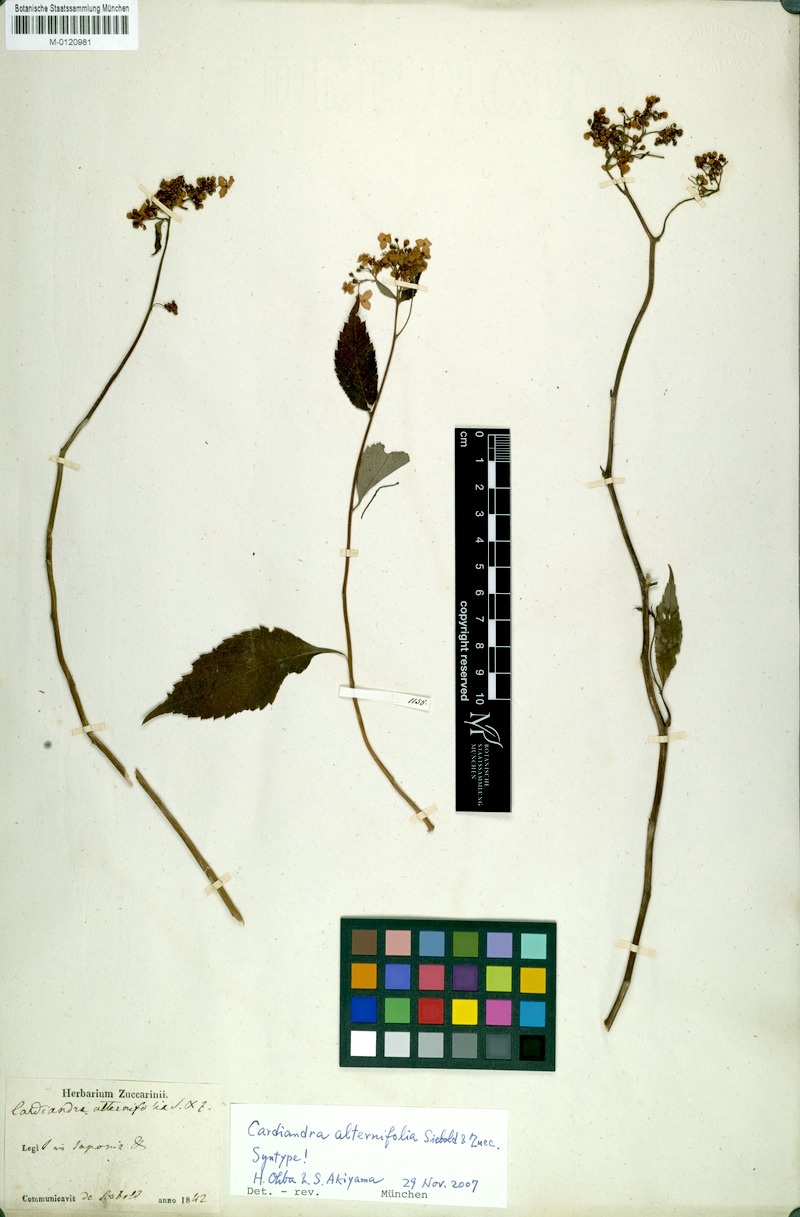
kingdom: Plantae
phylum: Tracheophyta
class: Magnoliopsida
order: Cornales
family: Hydrangeaceae
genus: Hydrangea
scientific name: Hydrangea alternifolia
